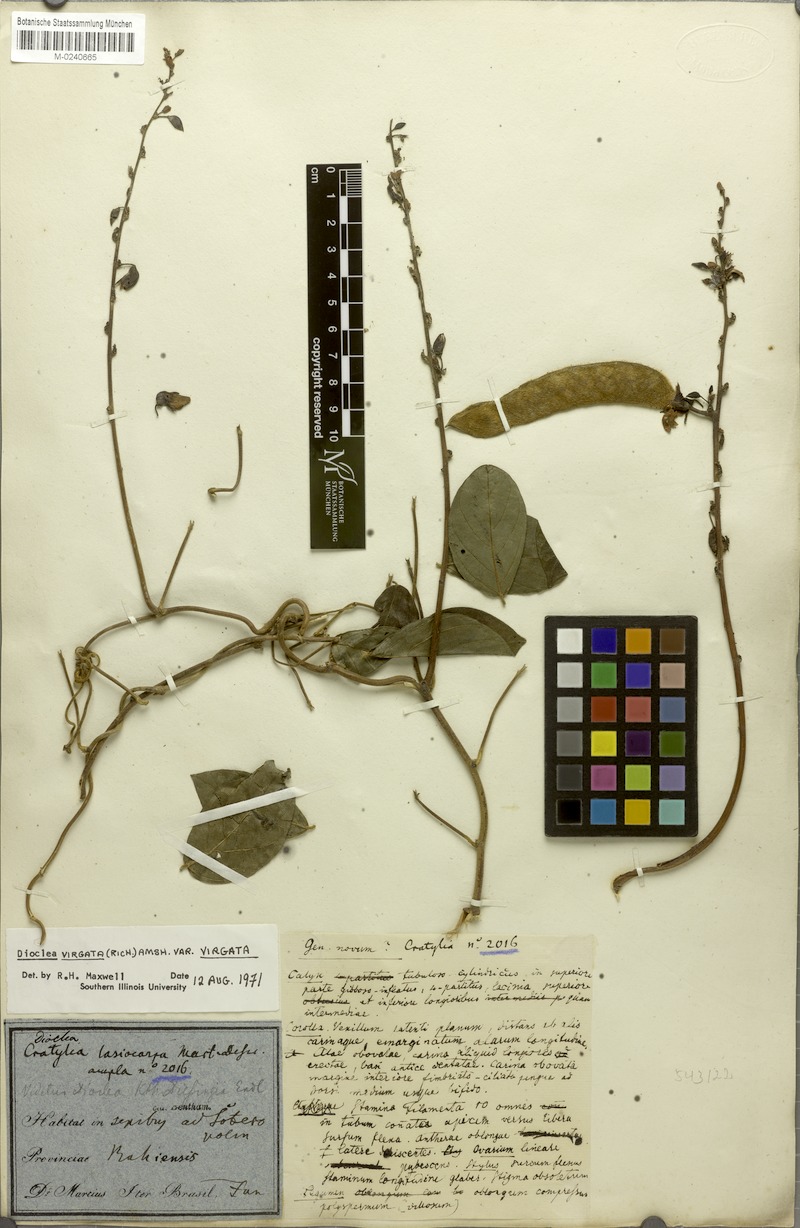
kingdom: Plantae
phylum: Tracheophyta
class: Magnoliopsida
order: Fabales
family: Fabaceae
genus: Dioclea
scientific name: Dioclea virgata
